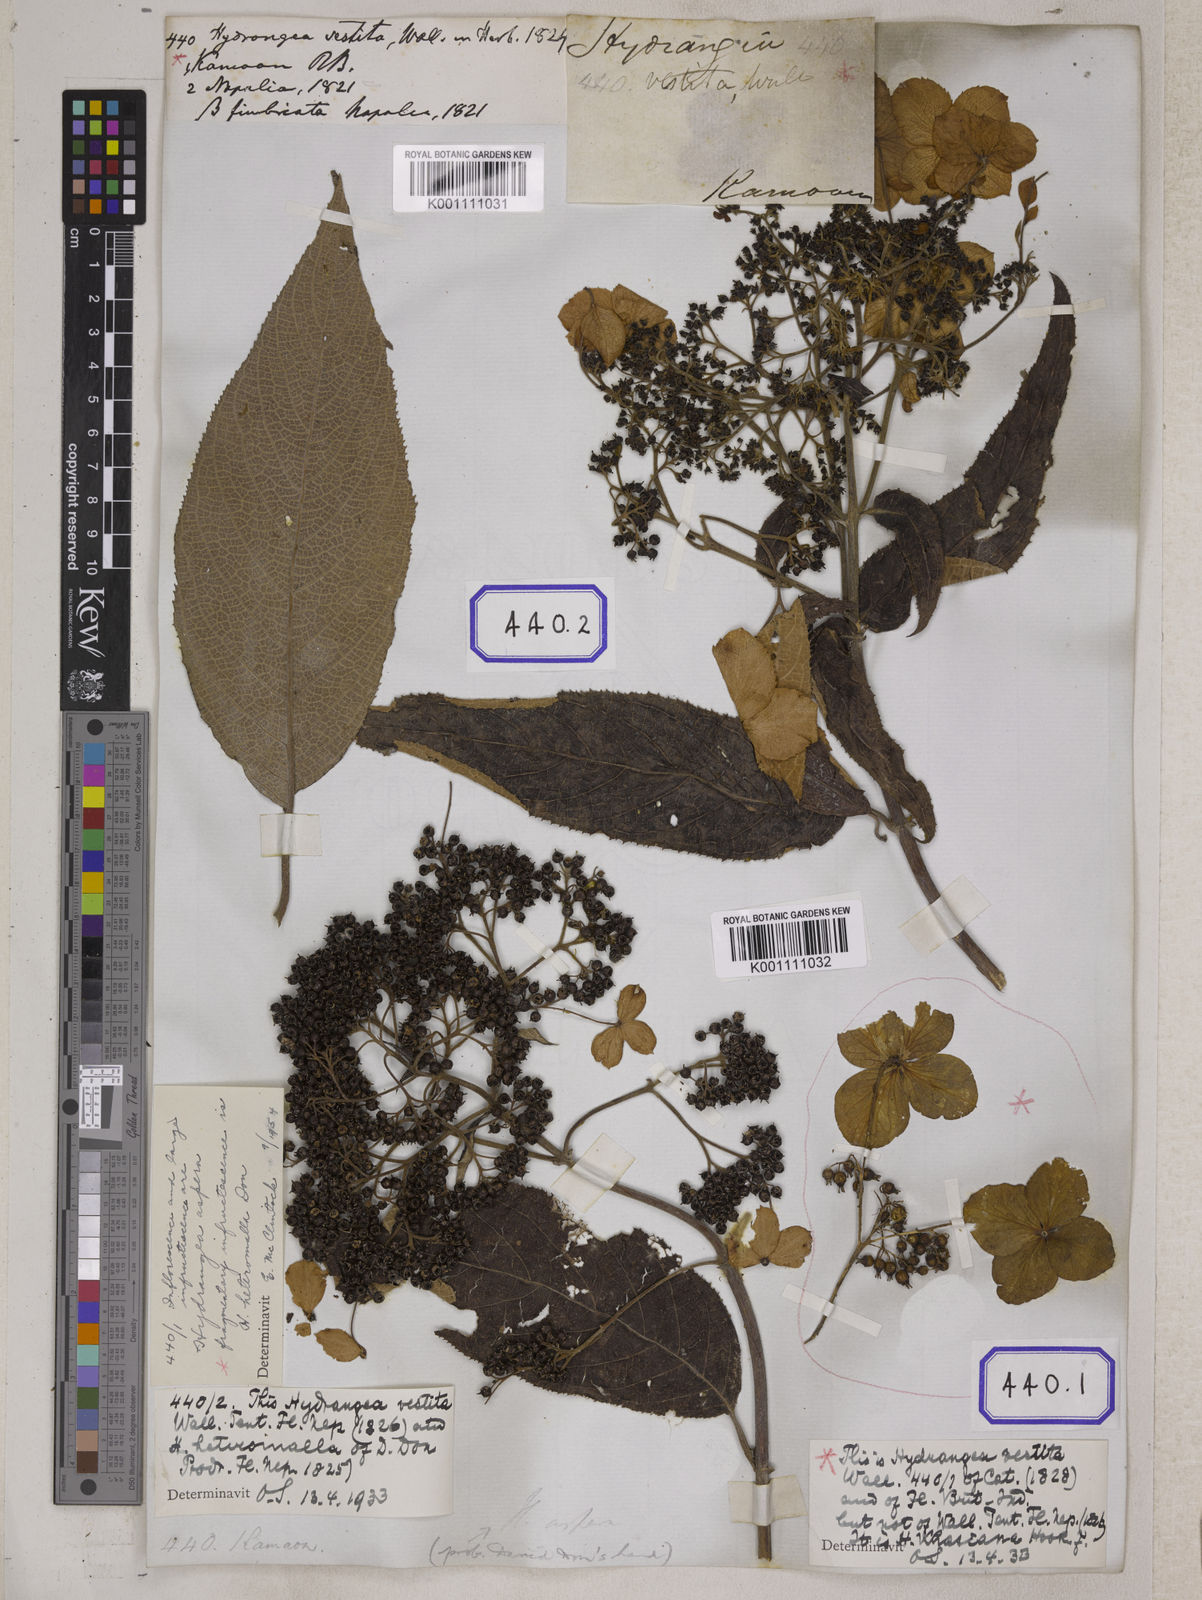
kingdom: Plantae
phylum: Tracheophyta
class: Magnoliopsida
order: Cornales
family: Hydrangeaceae
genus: Hydrangea
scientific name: Hydrangea heteromalla
